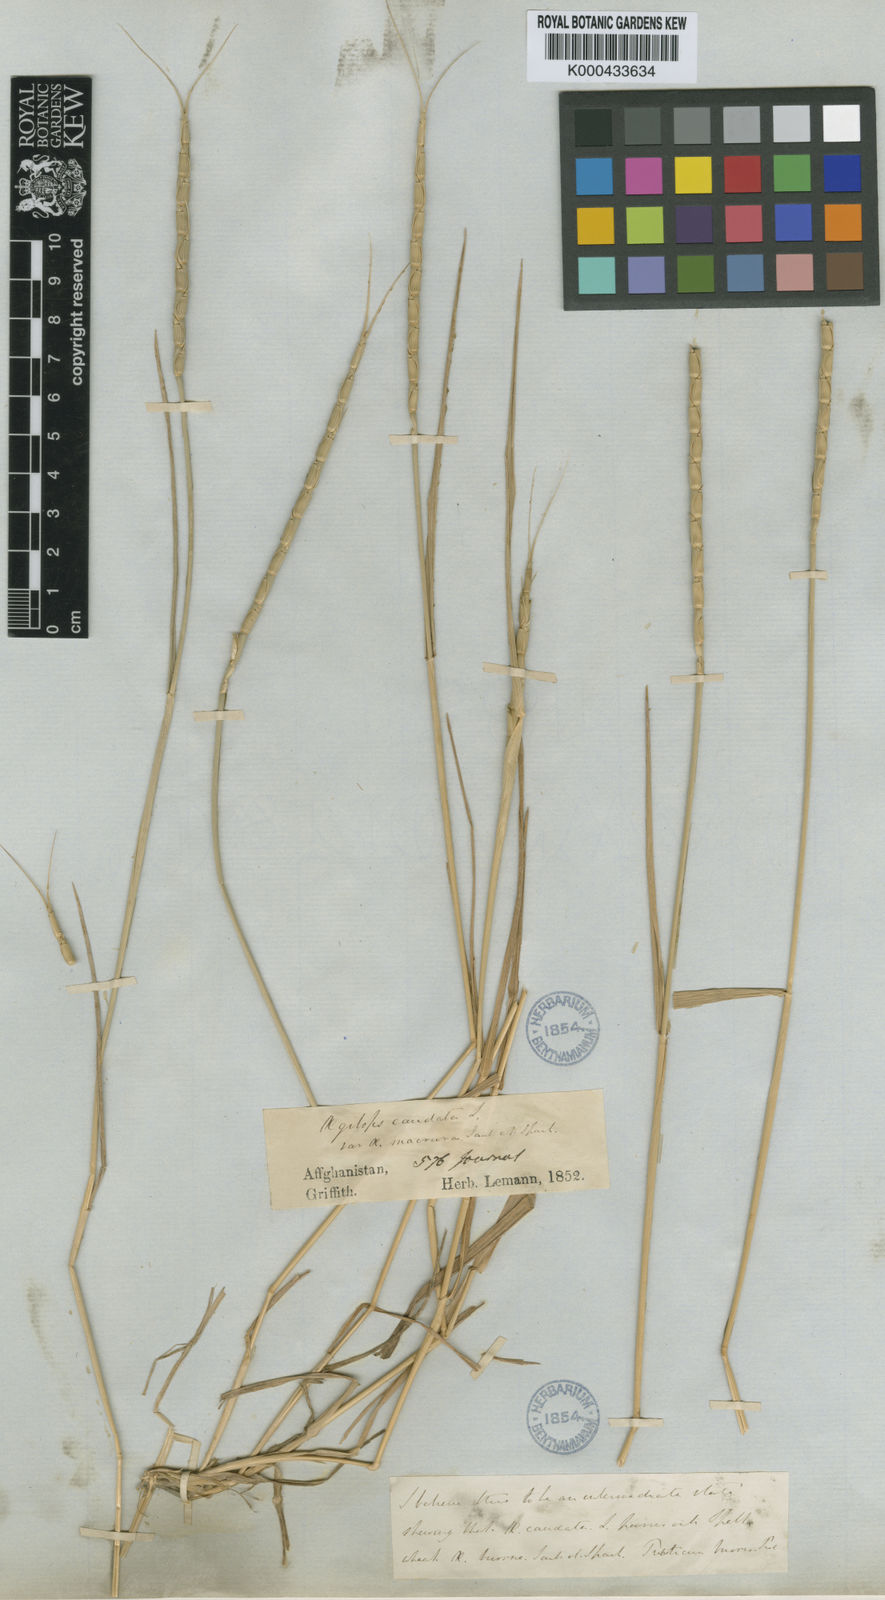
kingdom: Plantae
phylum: Tracheophyta
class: Liliopsida
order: Poales
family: Poaceae
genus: Aegilops
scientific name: Aegilops tauschii
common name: Rough-spike hard grass
